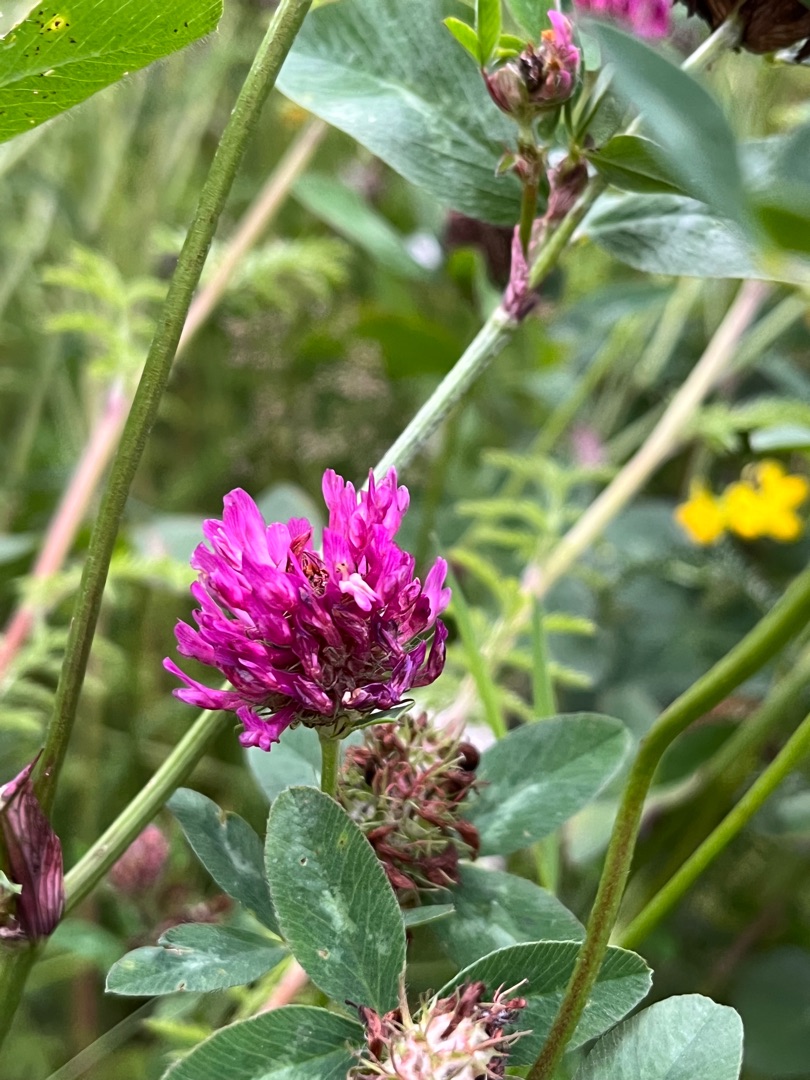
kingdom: Plantae
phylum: Tracheophyta
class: Magnoliopsida
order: Fabales
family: Fabaceae
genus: Trifolium
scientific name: Trifolium pratense
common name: Rød-kløver
